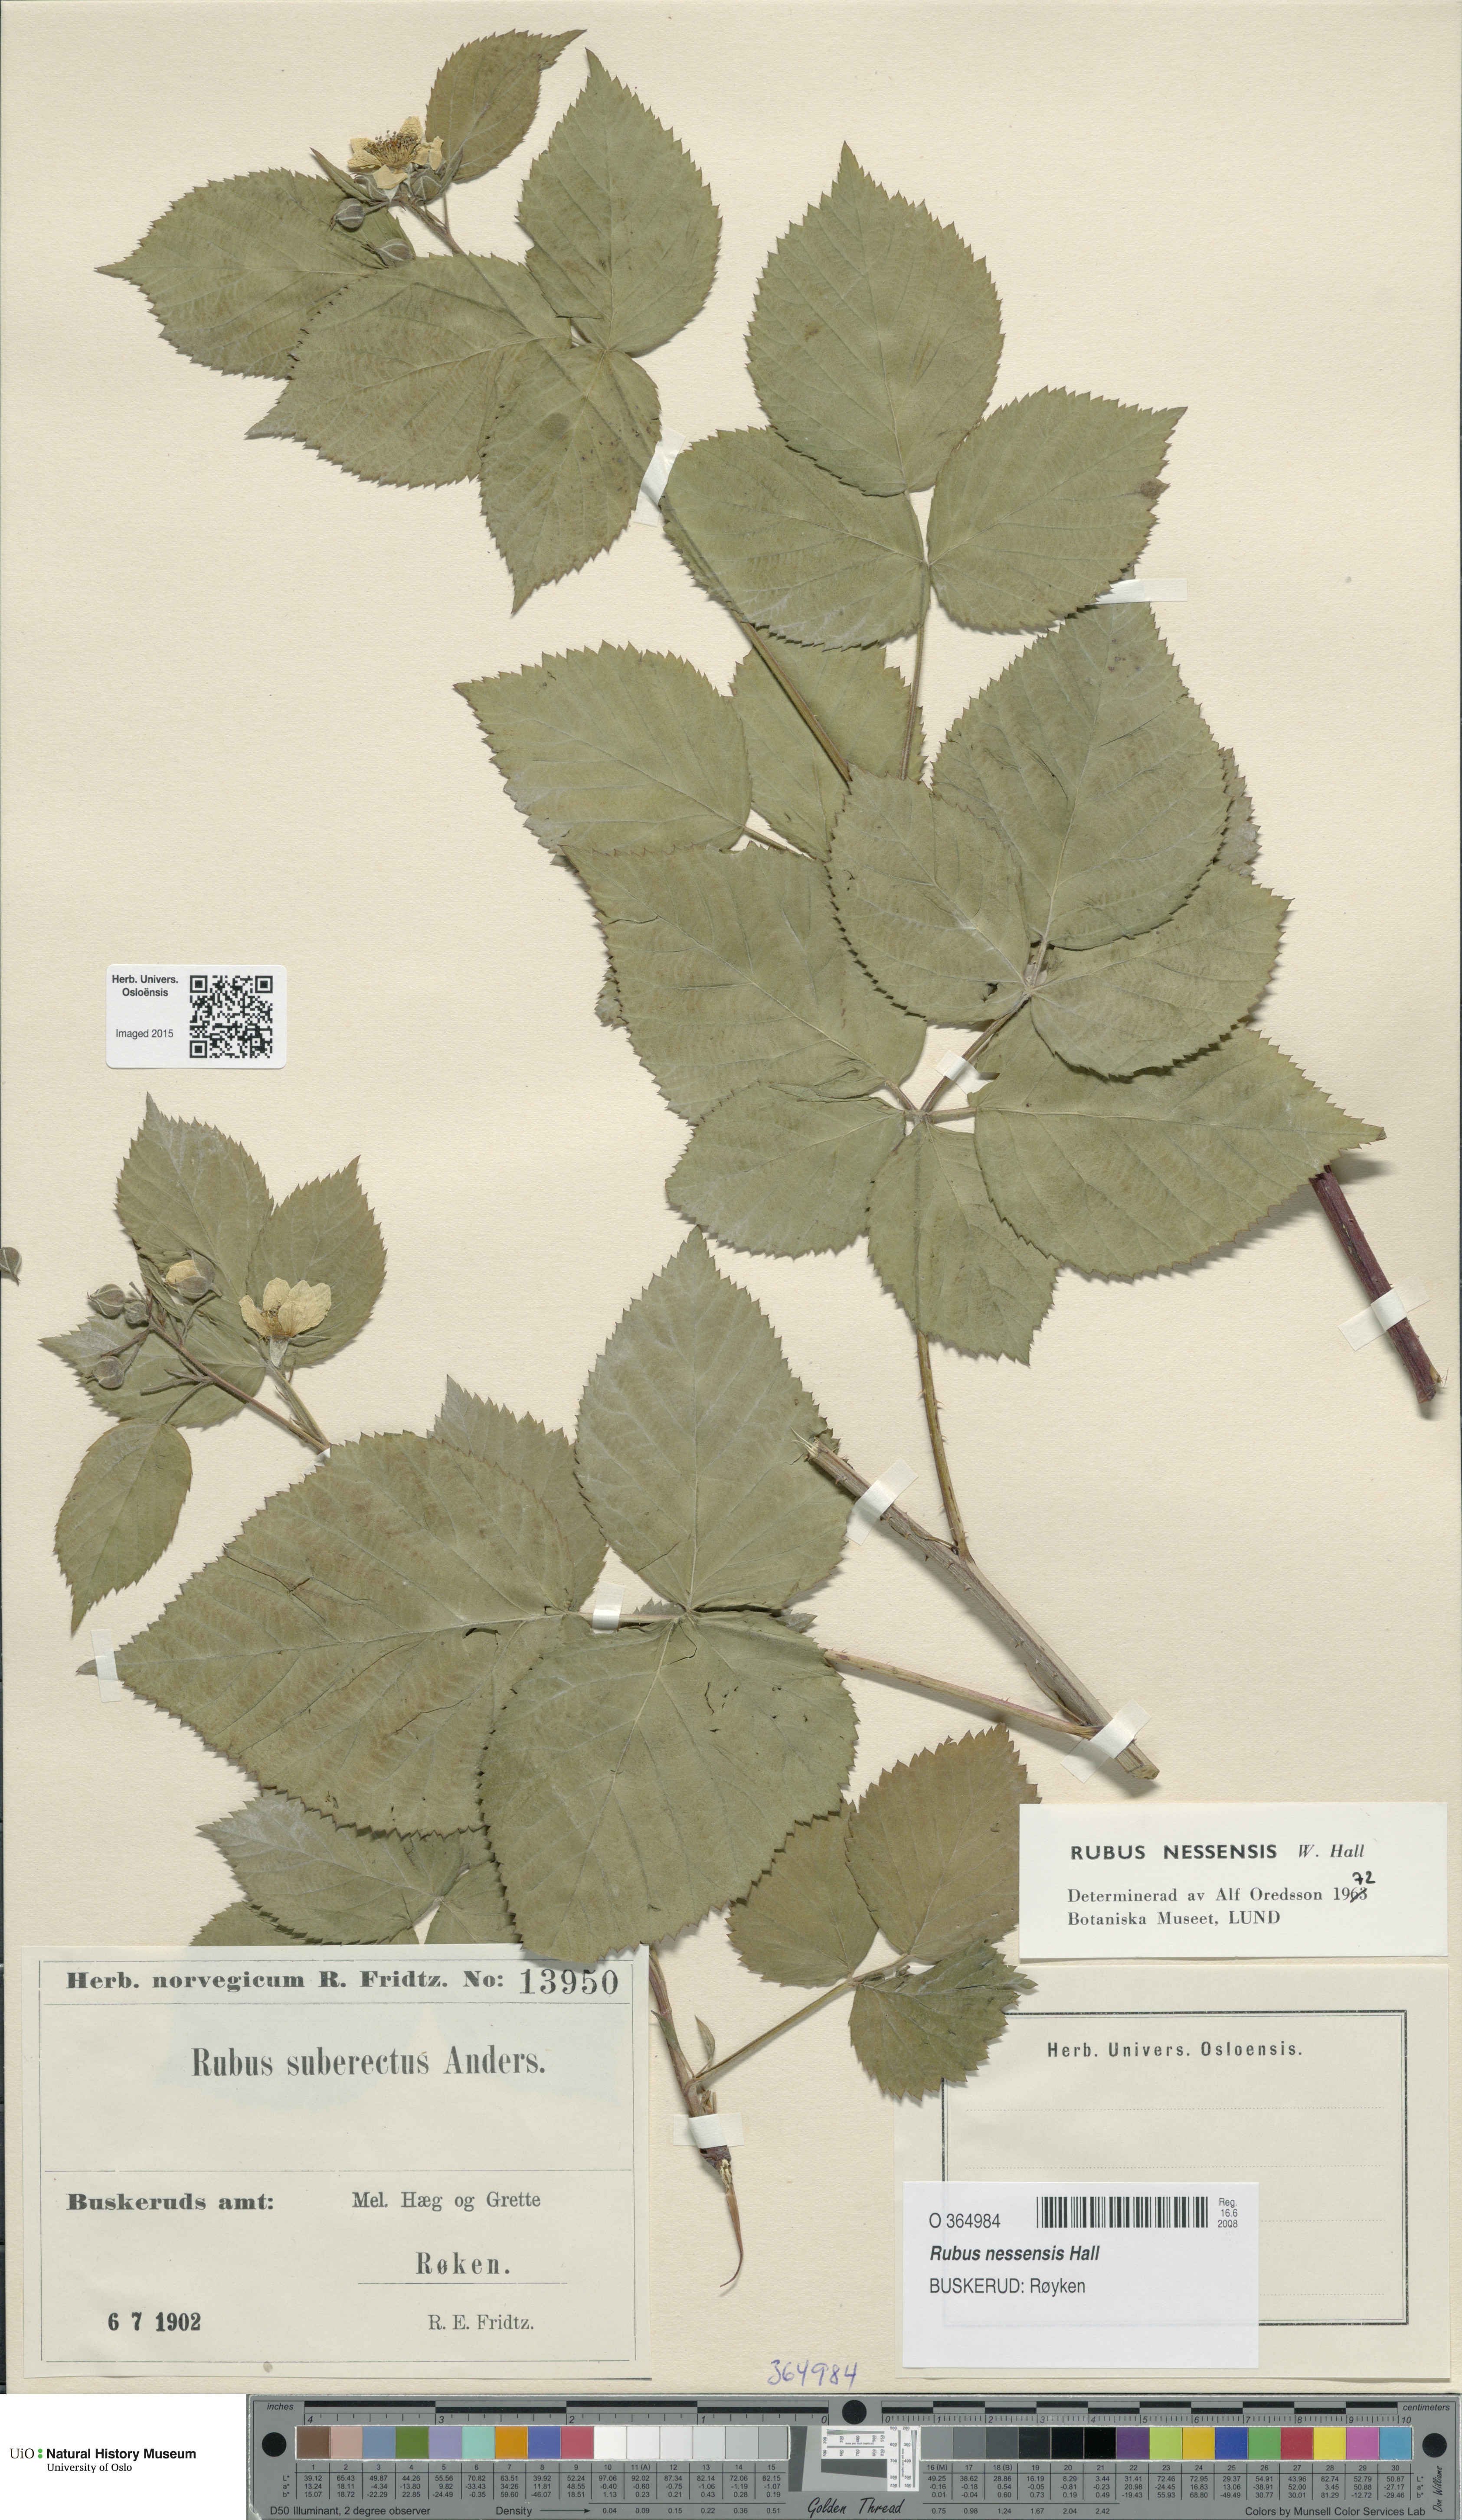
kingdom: Plantae
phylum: Tracheophyta
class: Magnoliopsida
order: Rosales
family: Rosaceae
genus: Rubus
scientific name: Rubus polonicus
